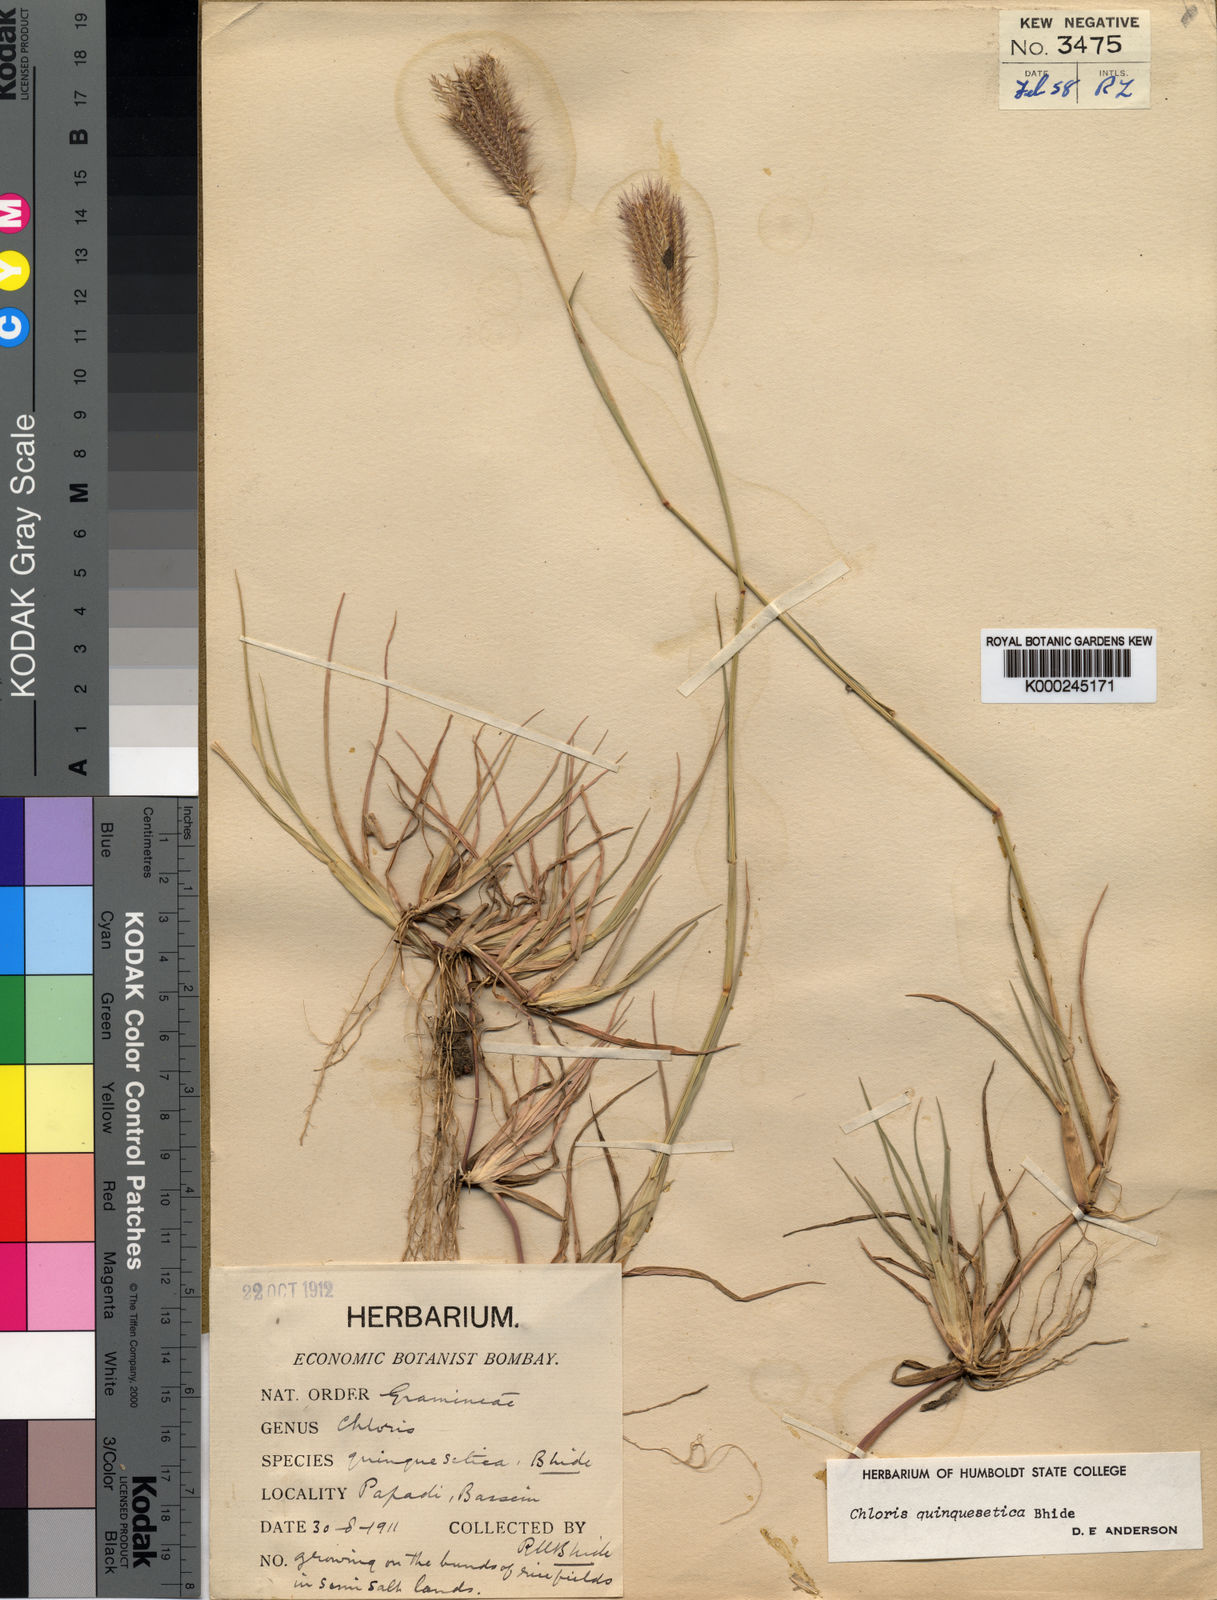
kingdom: Plantae
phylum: Tracheophyta
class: Liliopsida
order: Poales
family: Poaceae
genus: Chloris
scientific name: Chloris quinquesetica
